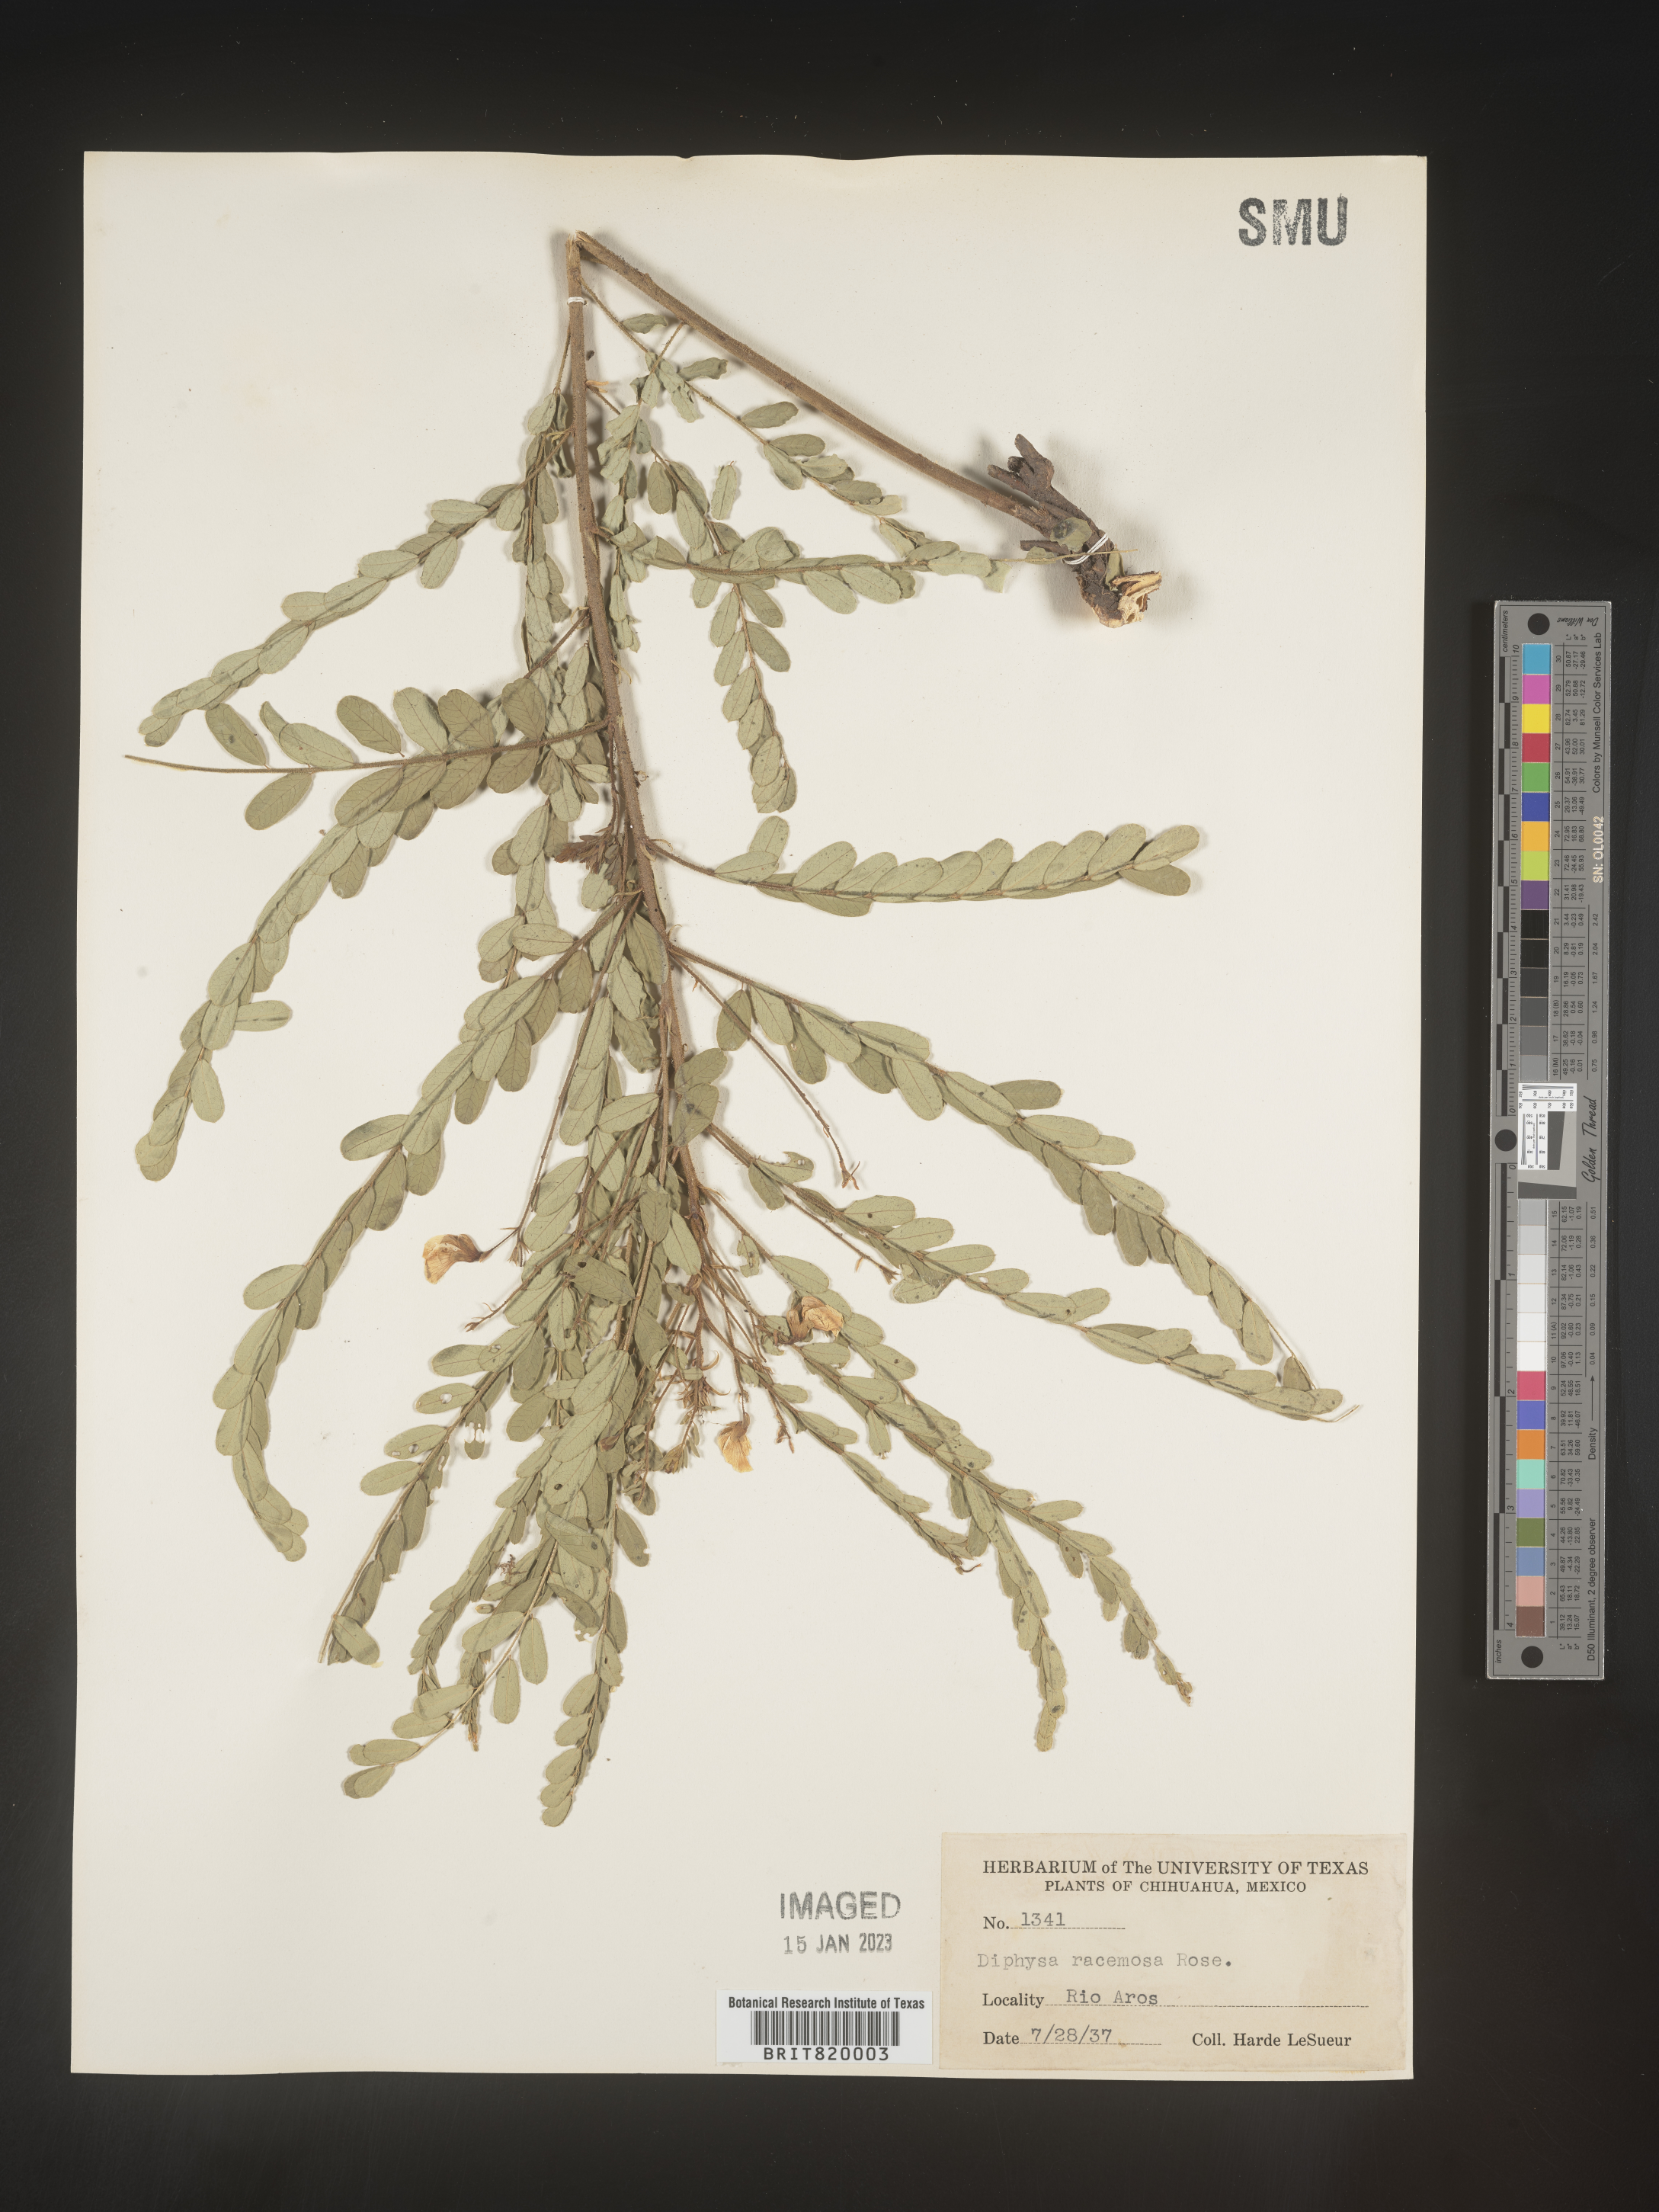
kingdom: Plantae
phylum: Tracheophyta
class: Magnoliopsida
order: Fabales
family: Fabaceae
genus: Diphysa
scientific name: Diphysa
